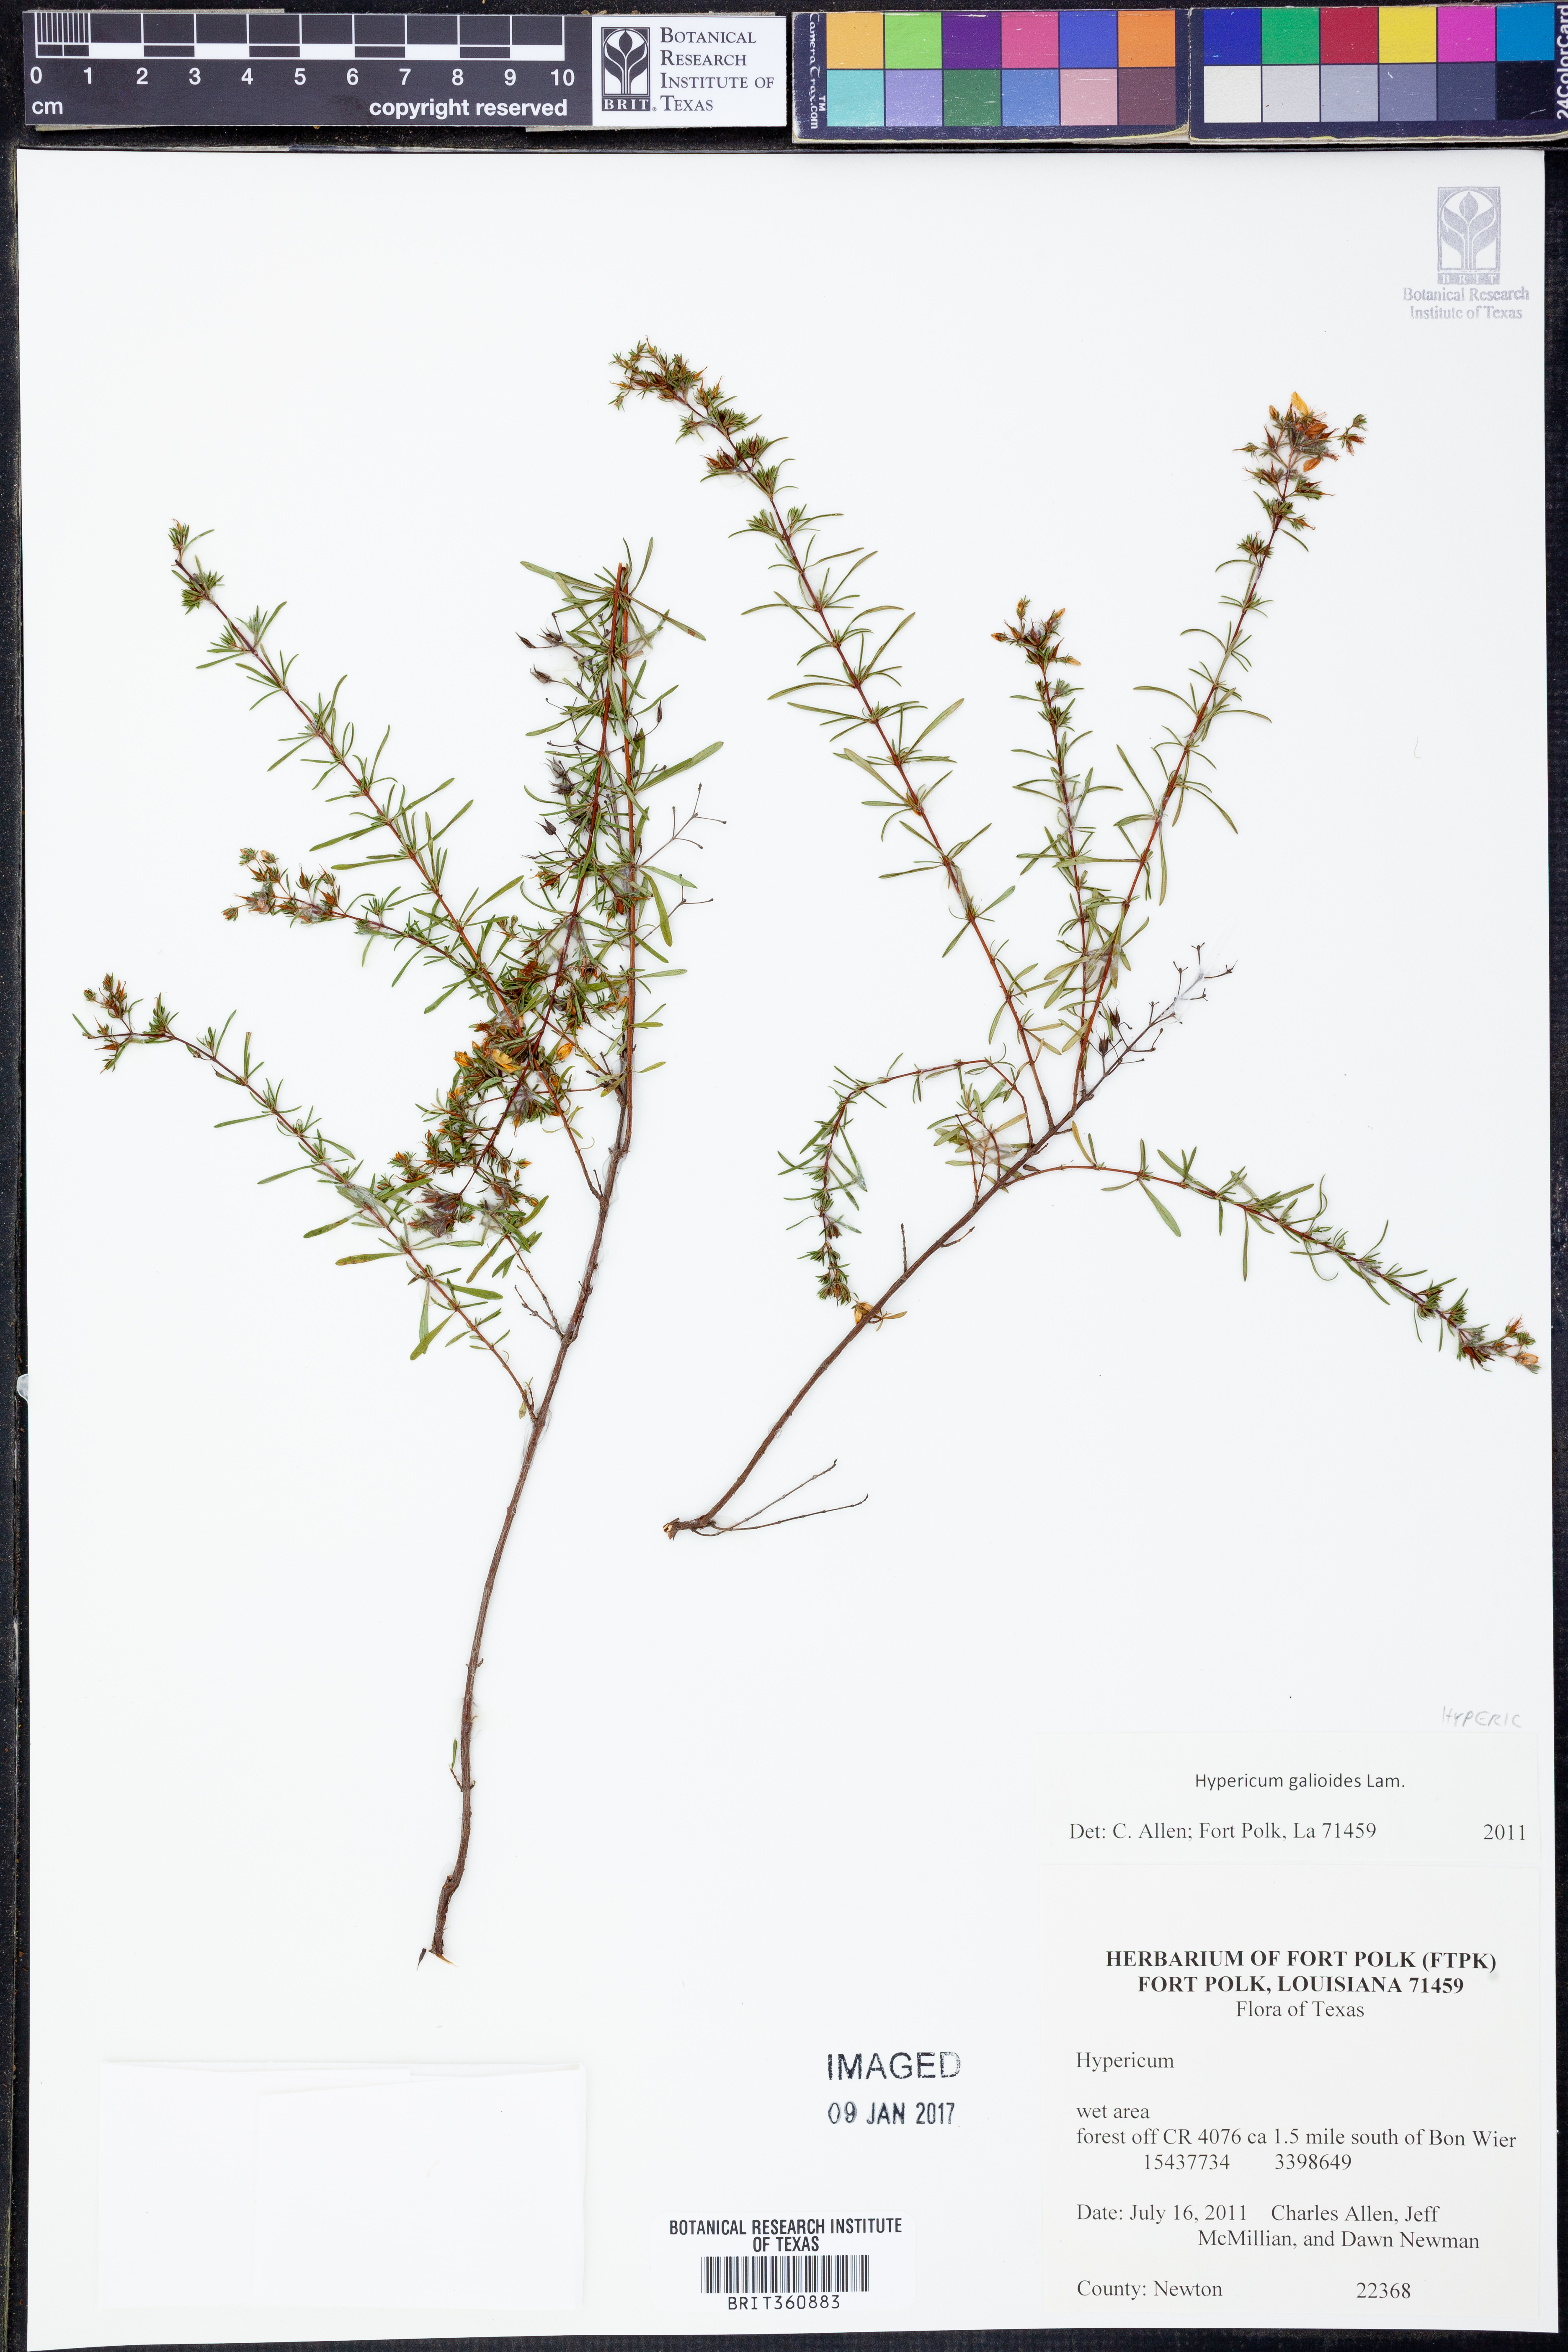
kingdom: Plantae
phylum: Tracheophyta
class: Magnoliopsida
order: Malpighiales
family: Hypericaceae
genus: Hypericum
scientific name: Hypericum galioides
